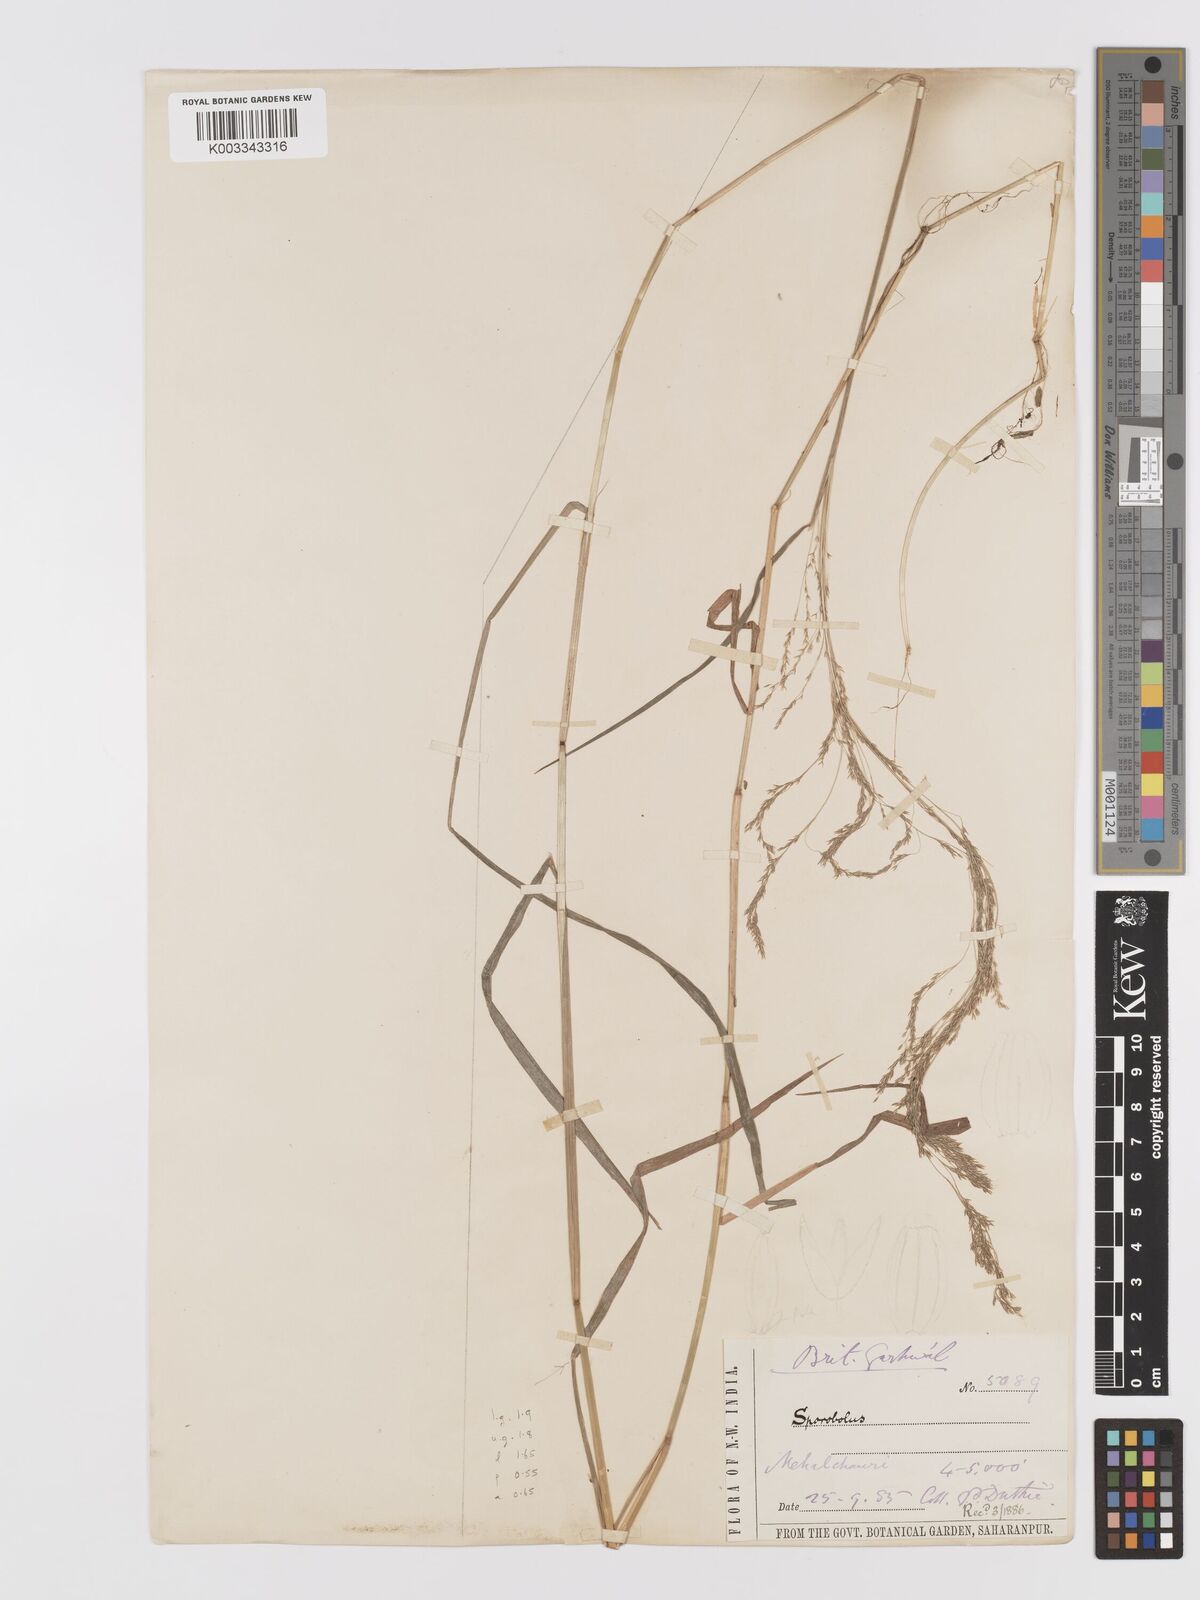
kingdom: Plantae
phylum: Tracheophyta
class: Liliopsida
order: Poales
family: Poaceae
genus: Agrostis
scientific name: Agrostis micrantha
